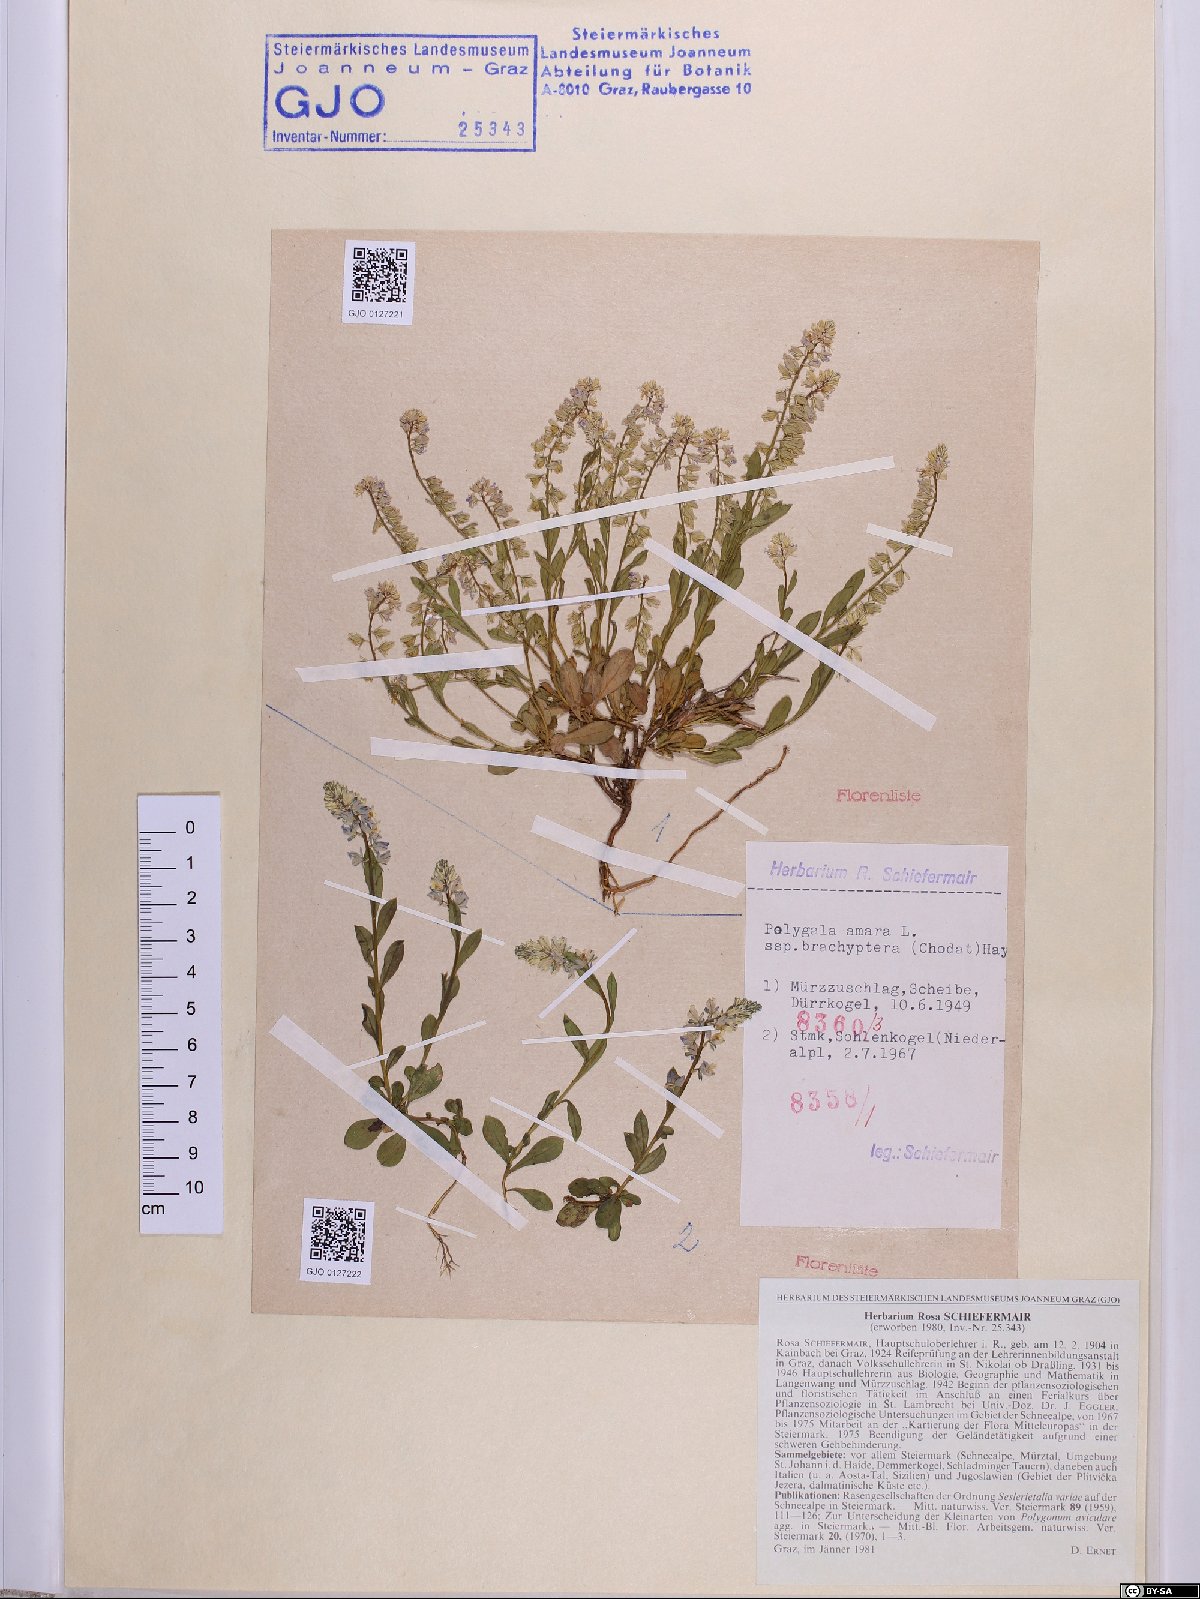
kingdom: Plantae
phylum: Tracheophyta
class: Magnoliopsida
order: Fabales
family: Polygalaceae
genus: Polygala
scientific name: Polygala amara
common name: Milkwort
